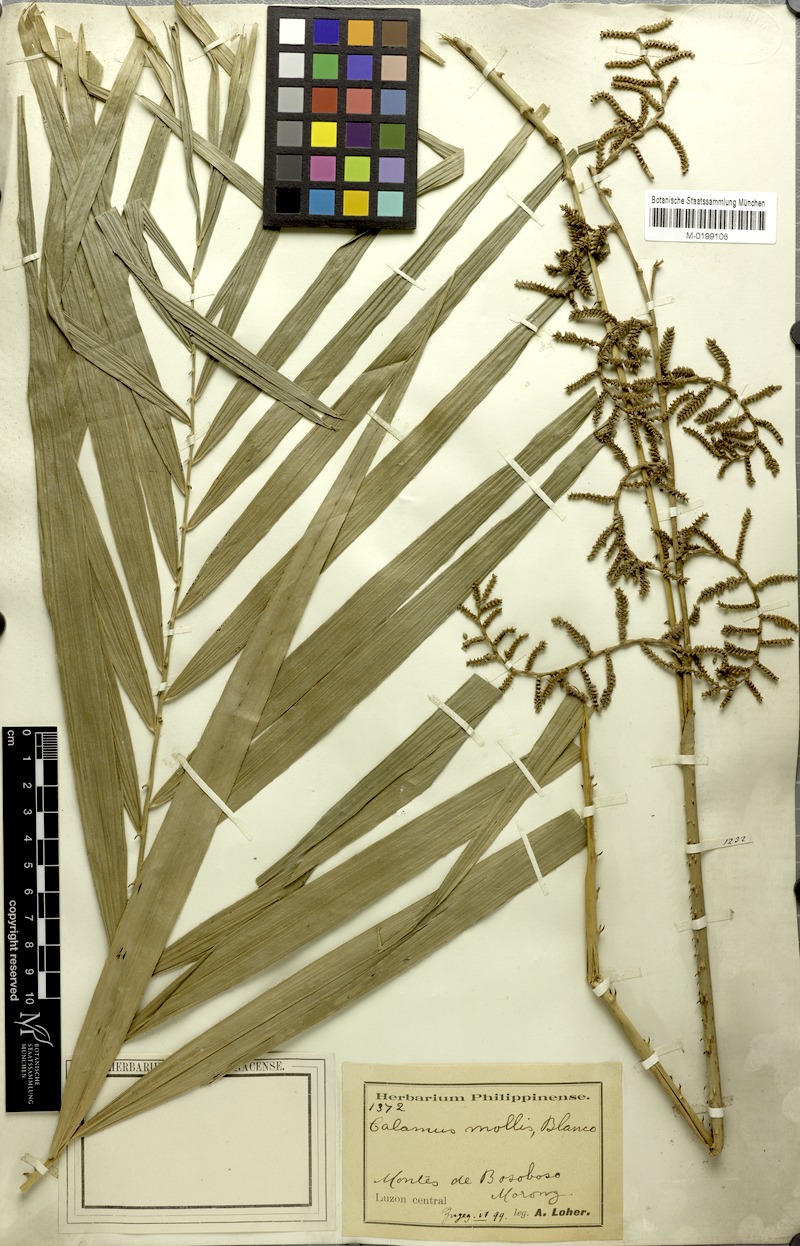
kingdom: Plantae
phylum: Tracheophyta
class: Liliopsida
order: Arecales
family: Arecaceae
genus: Calamus
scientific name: Calamus usitatus
